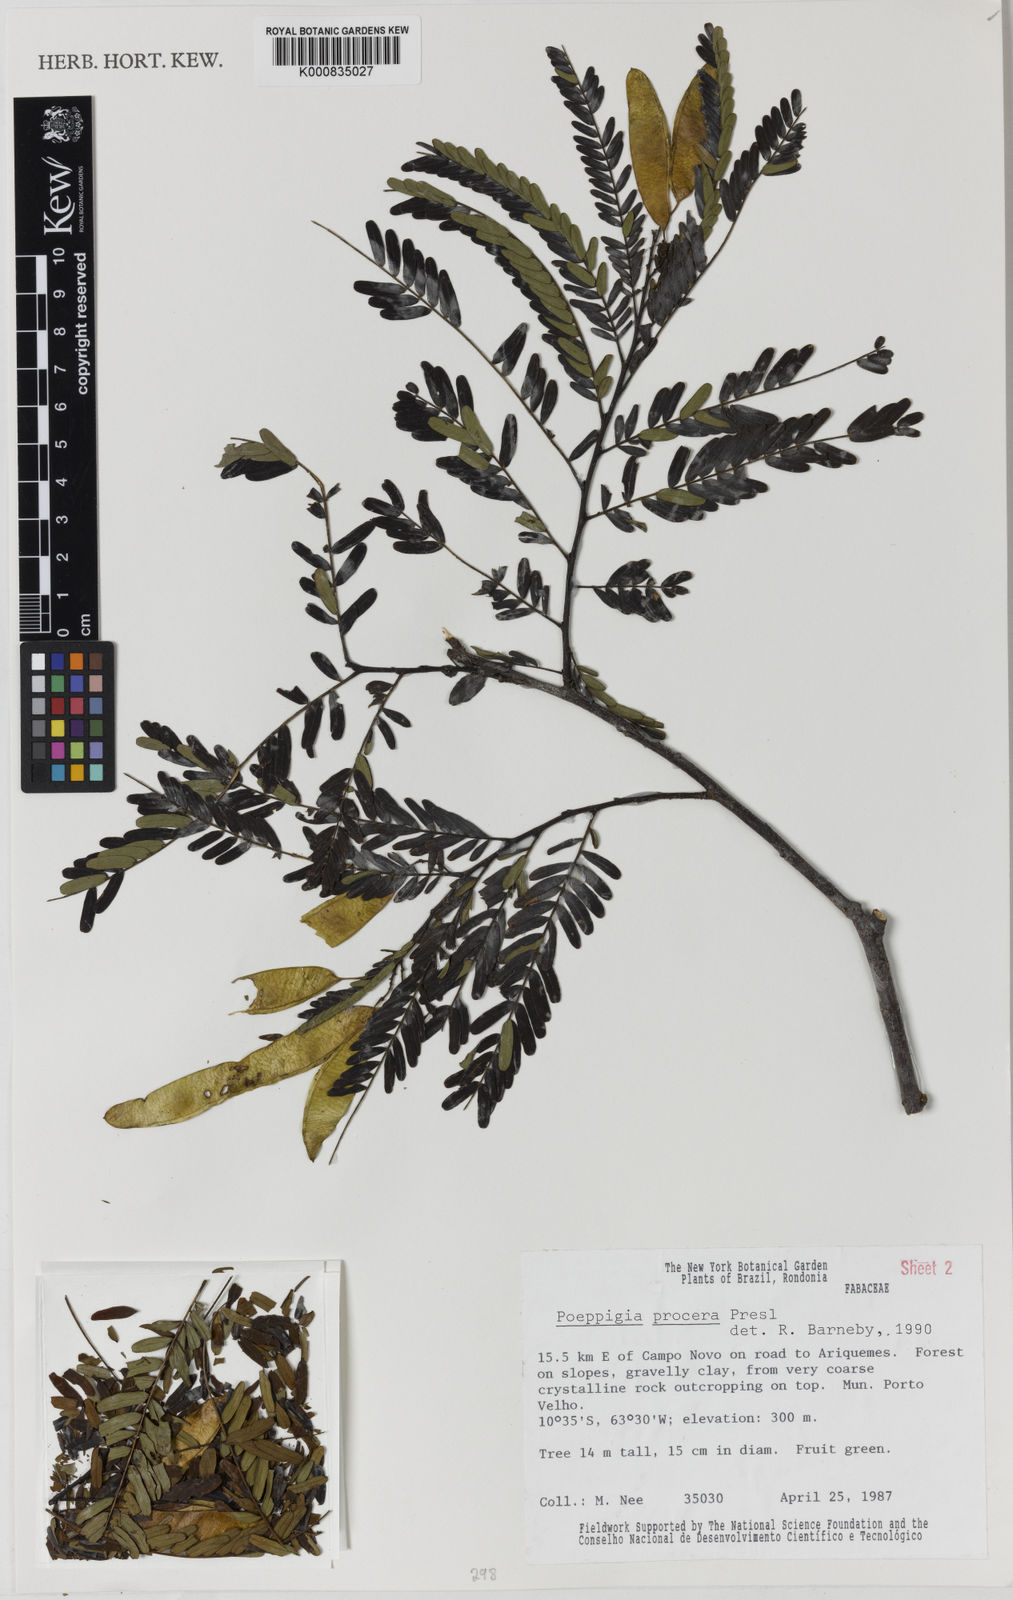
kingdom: Plantae
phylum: Tracheophyta
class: Magnoliopsida
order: Fabales
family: Fabaceae
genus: Poeppigia
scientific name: Poeppigia procera
